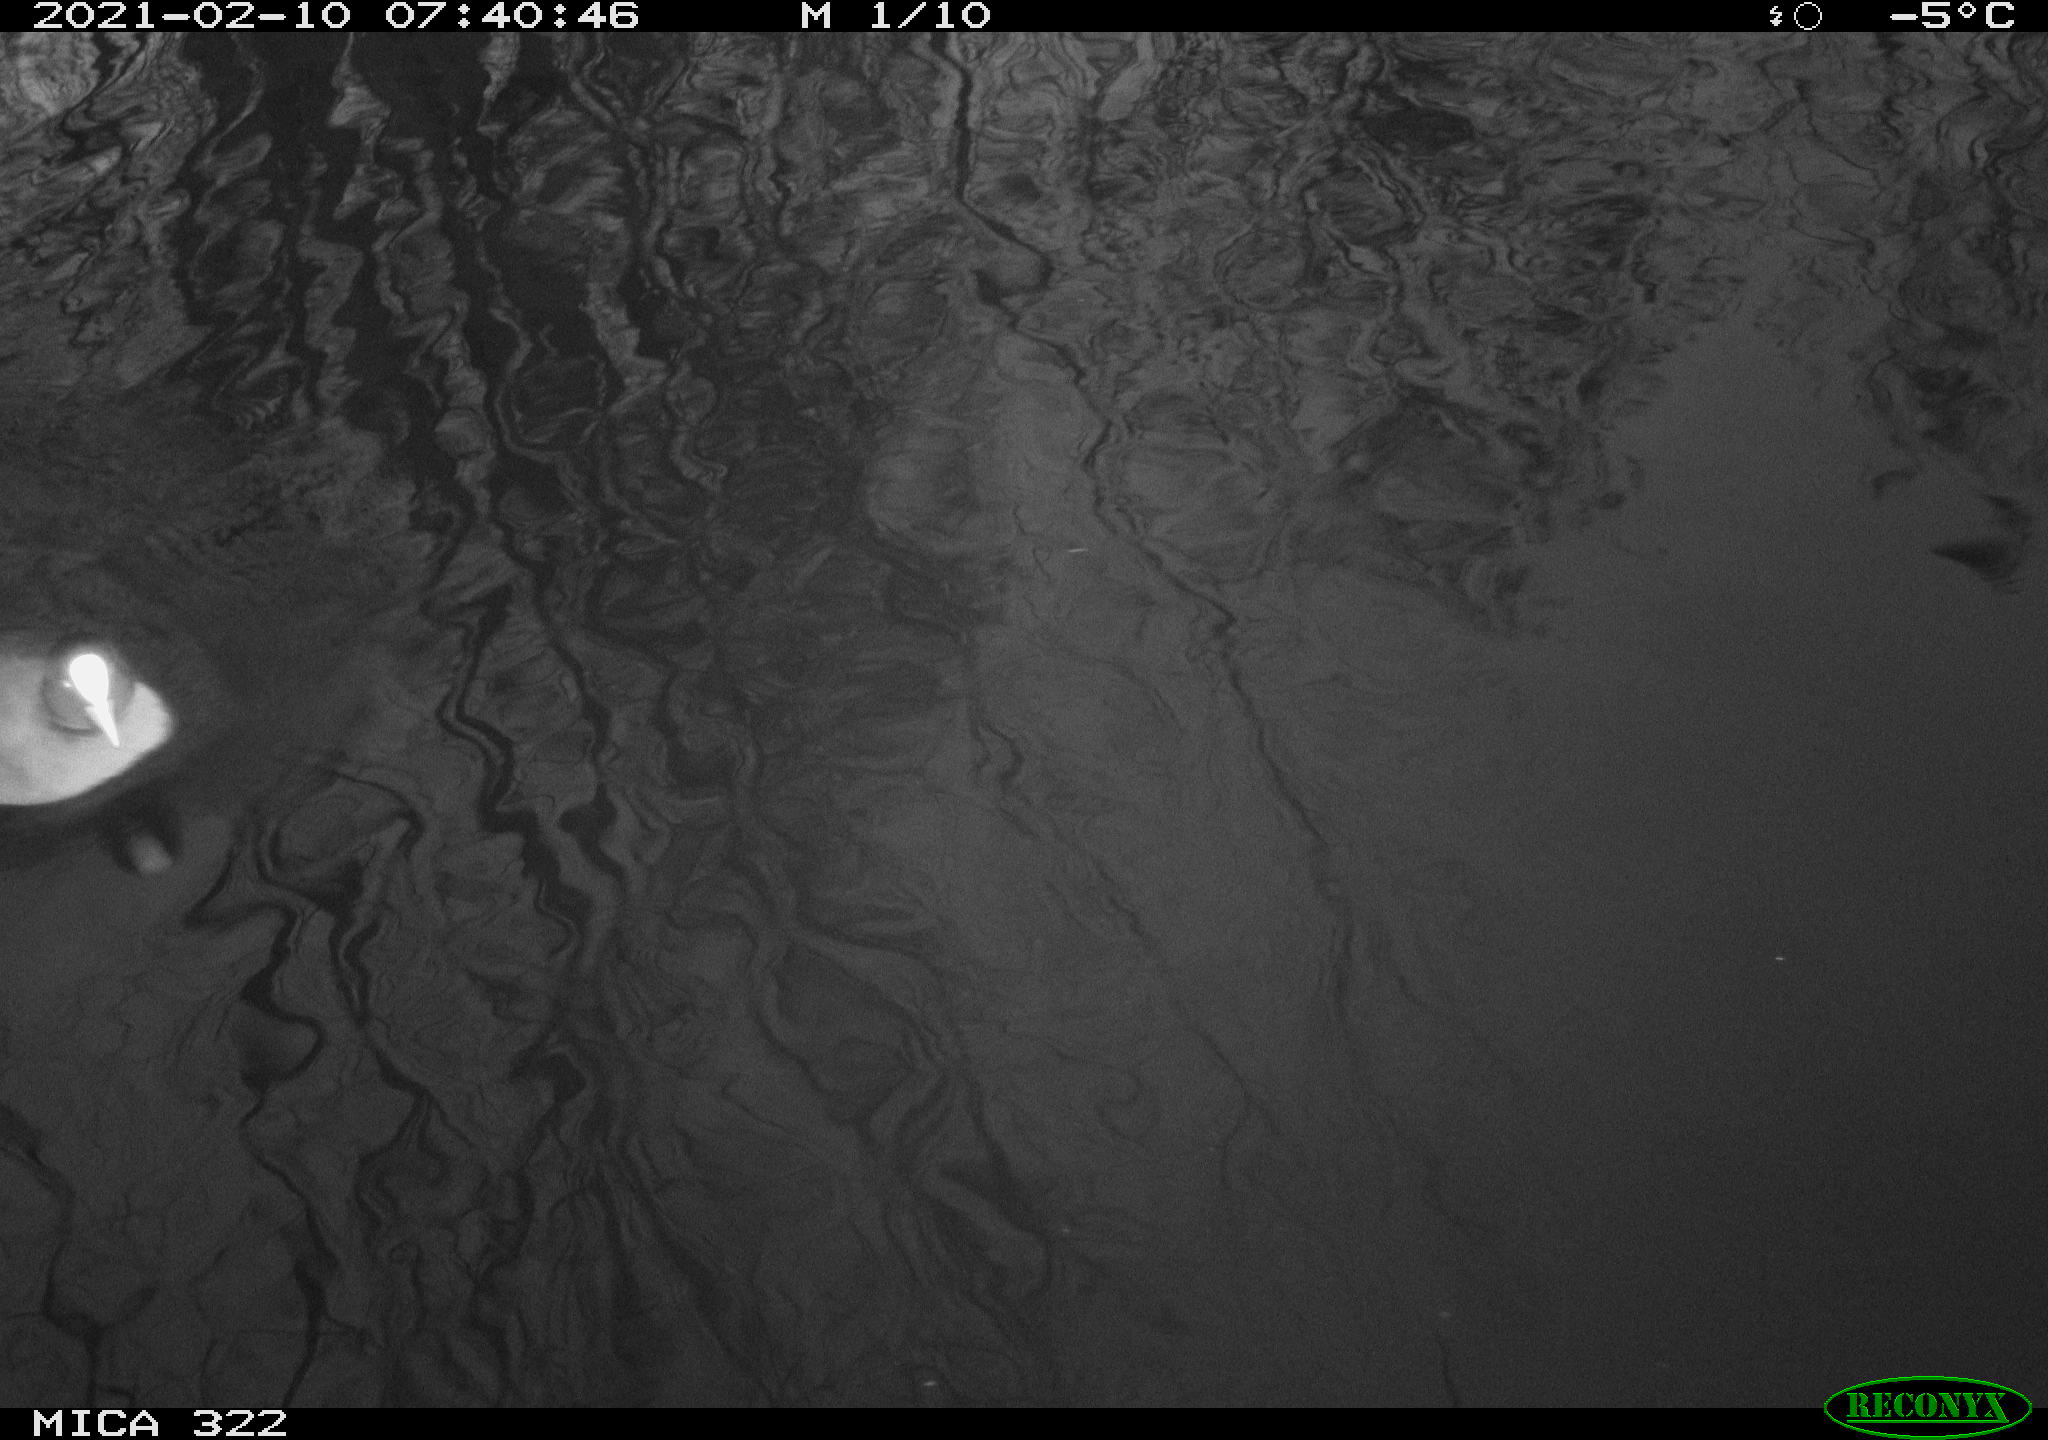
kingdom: Animalia
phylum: Chordata
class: Aves
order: Gruiformes
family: Rallidae
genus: Fulica
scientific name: Fulica atra
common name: Eurasian coot
